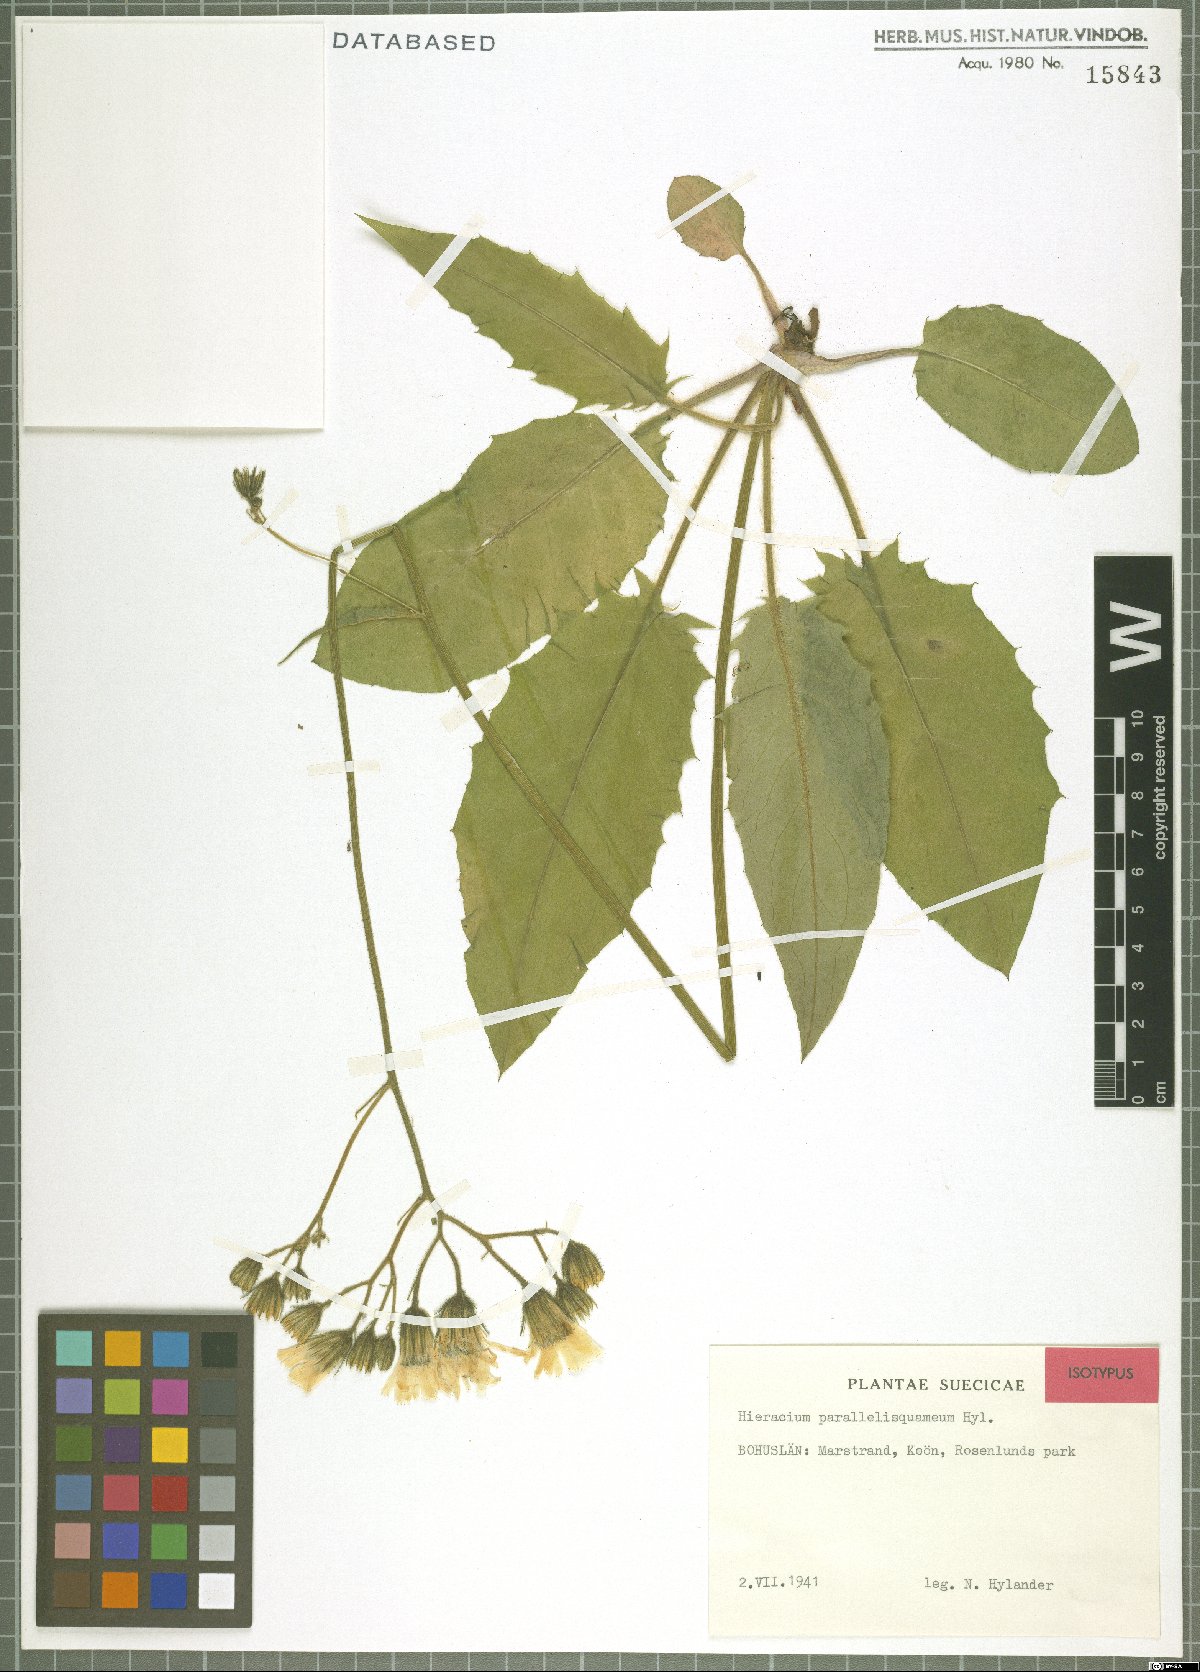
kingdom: Plantae
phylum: Tracheophyta
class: Magnoliopsida
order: Asterales
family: Asteraceae
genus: Hieracium
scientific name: Hieracium parallelisquameum
